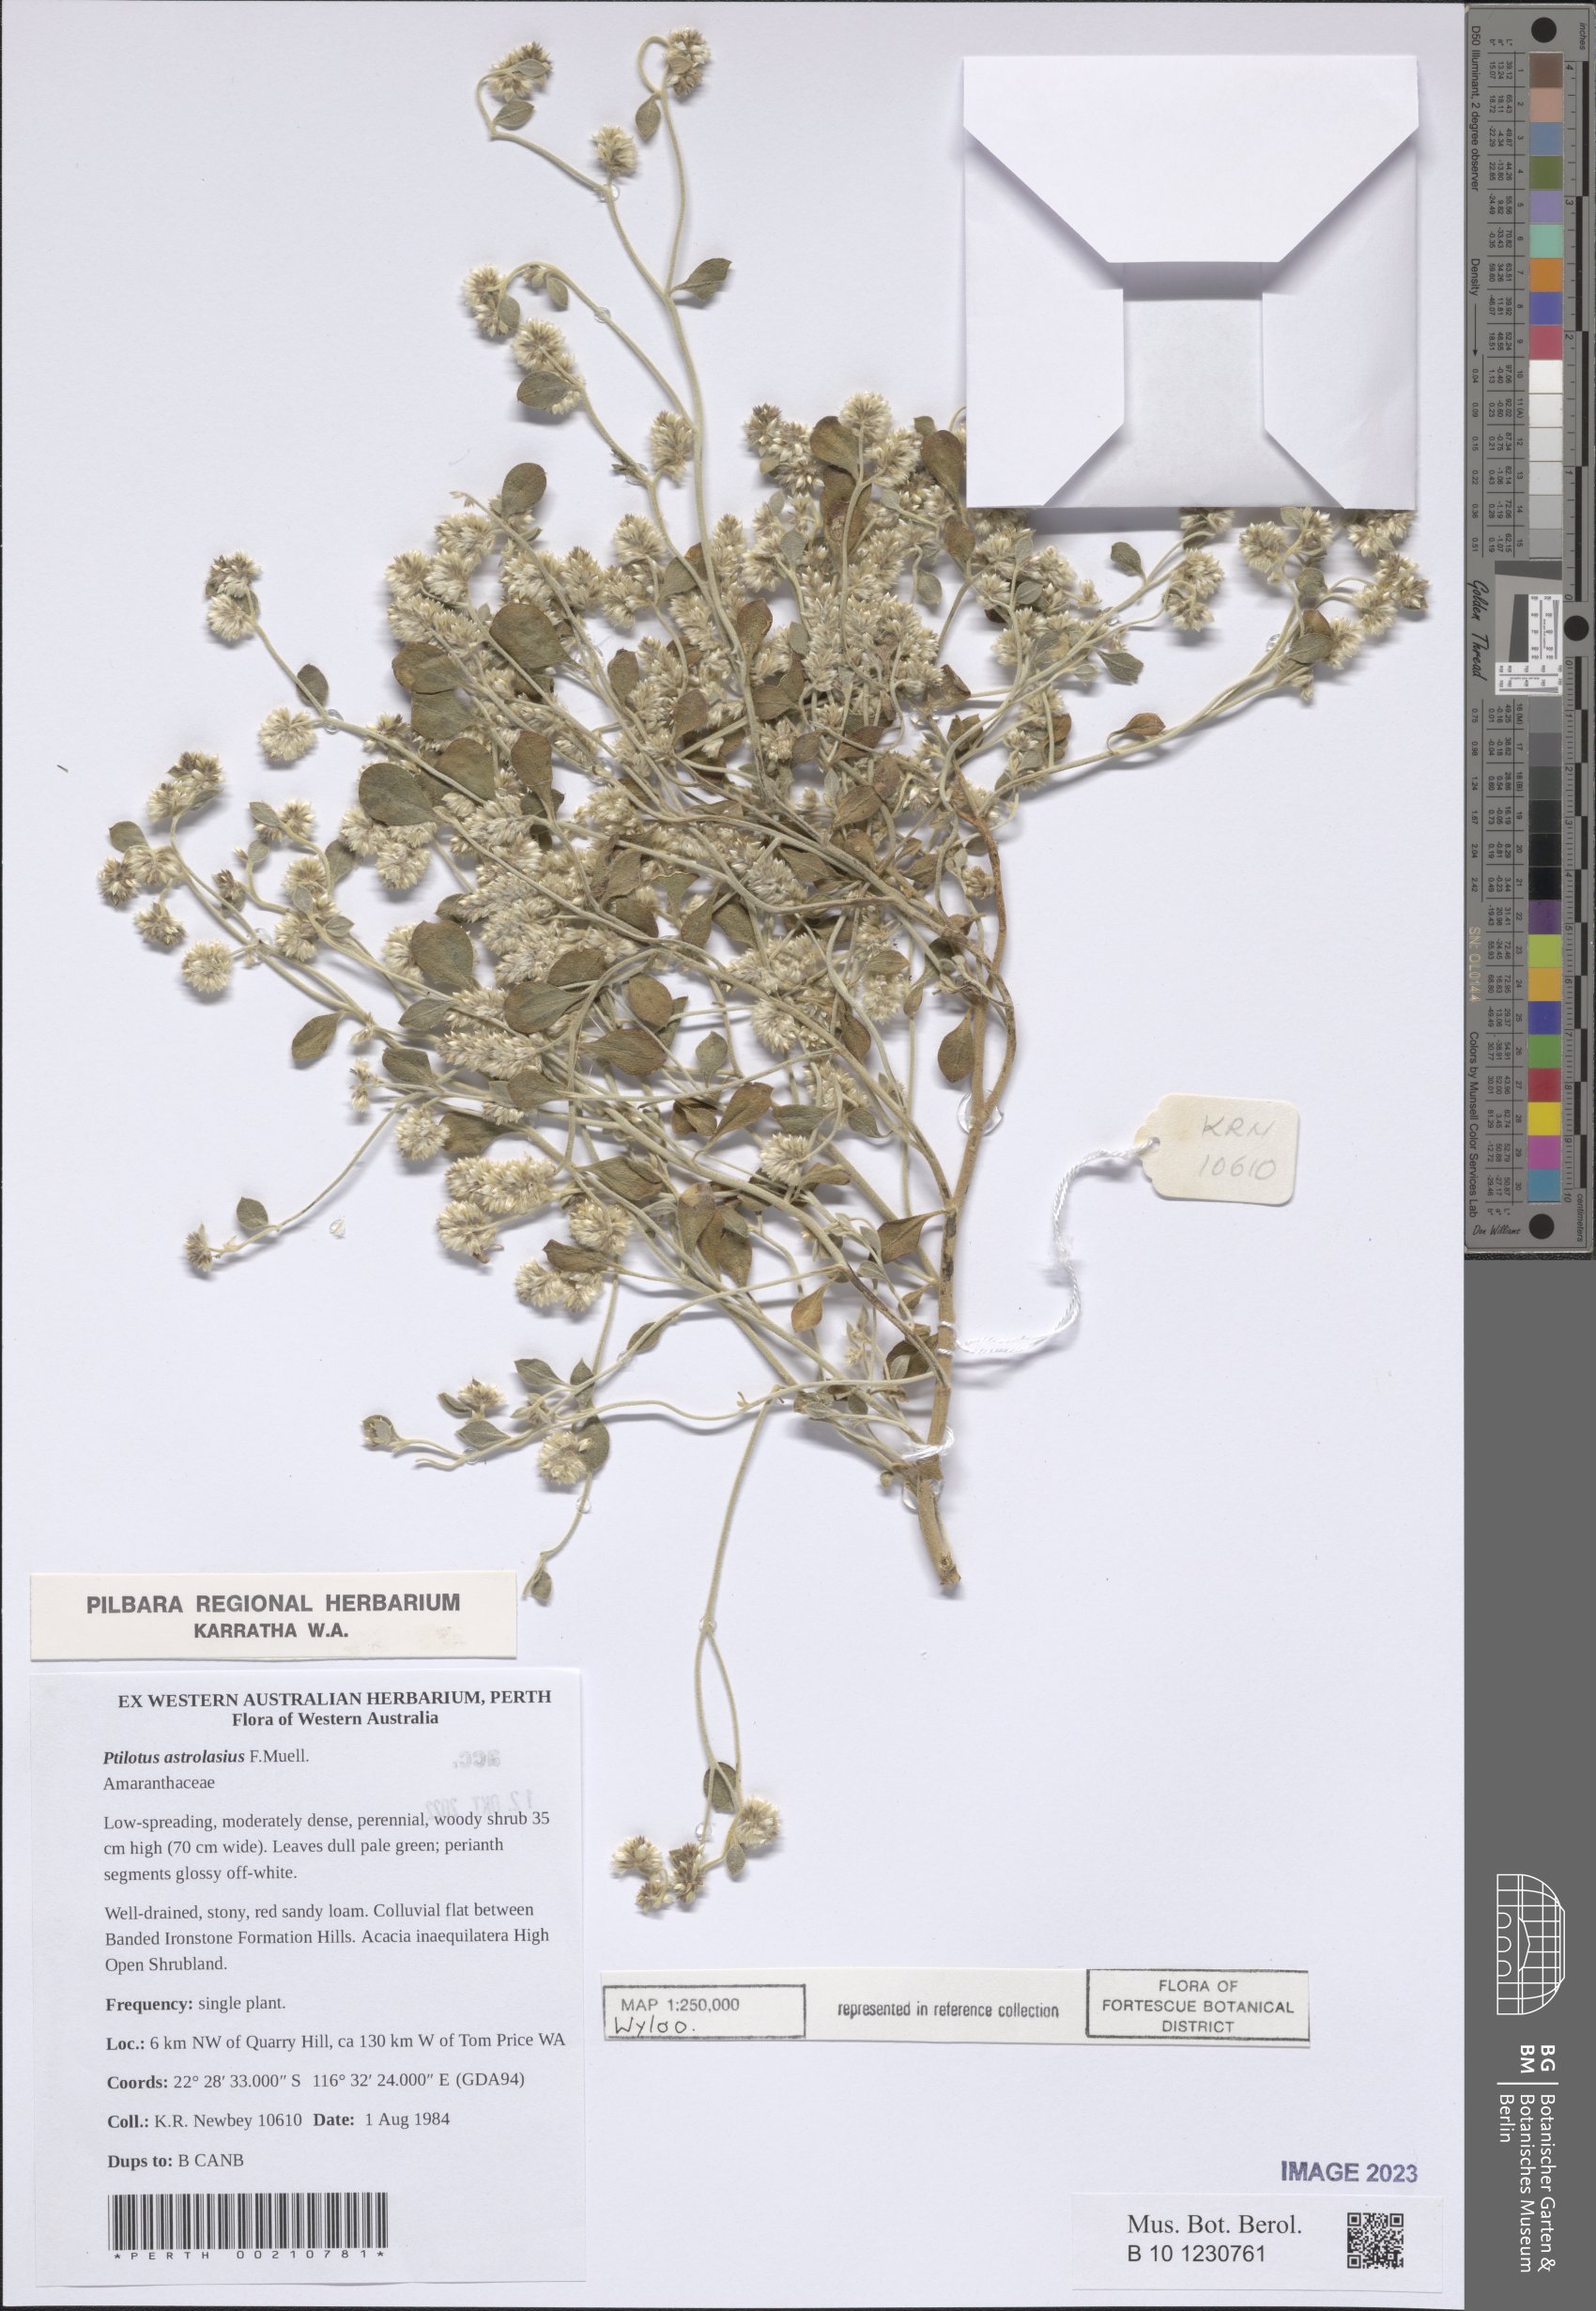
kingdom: Plantae
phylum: Tracheophyta
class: Magnoliopsida
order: Caryophyllales
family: Amaranthaceae
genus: Ptilotus
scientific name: Ptilotus astrolasius
